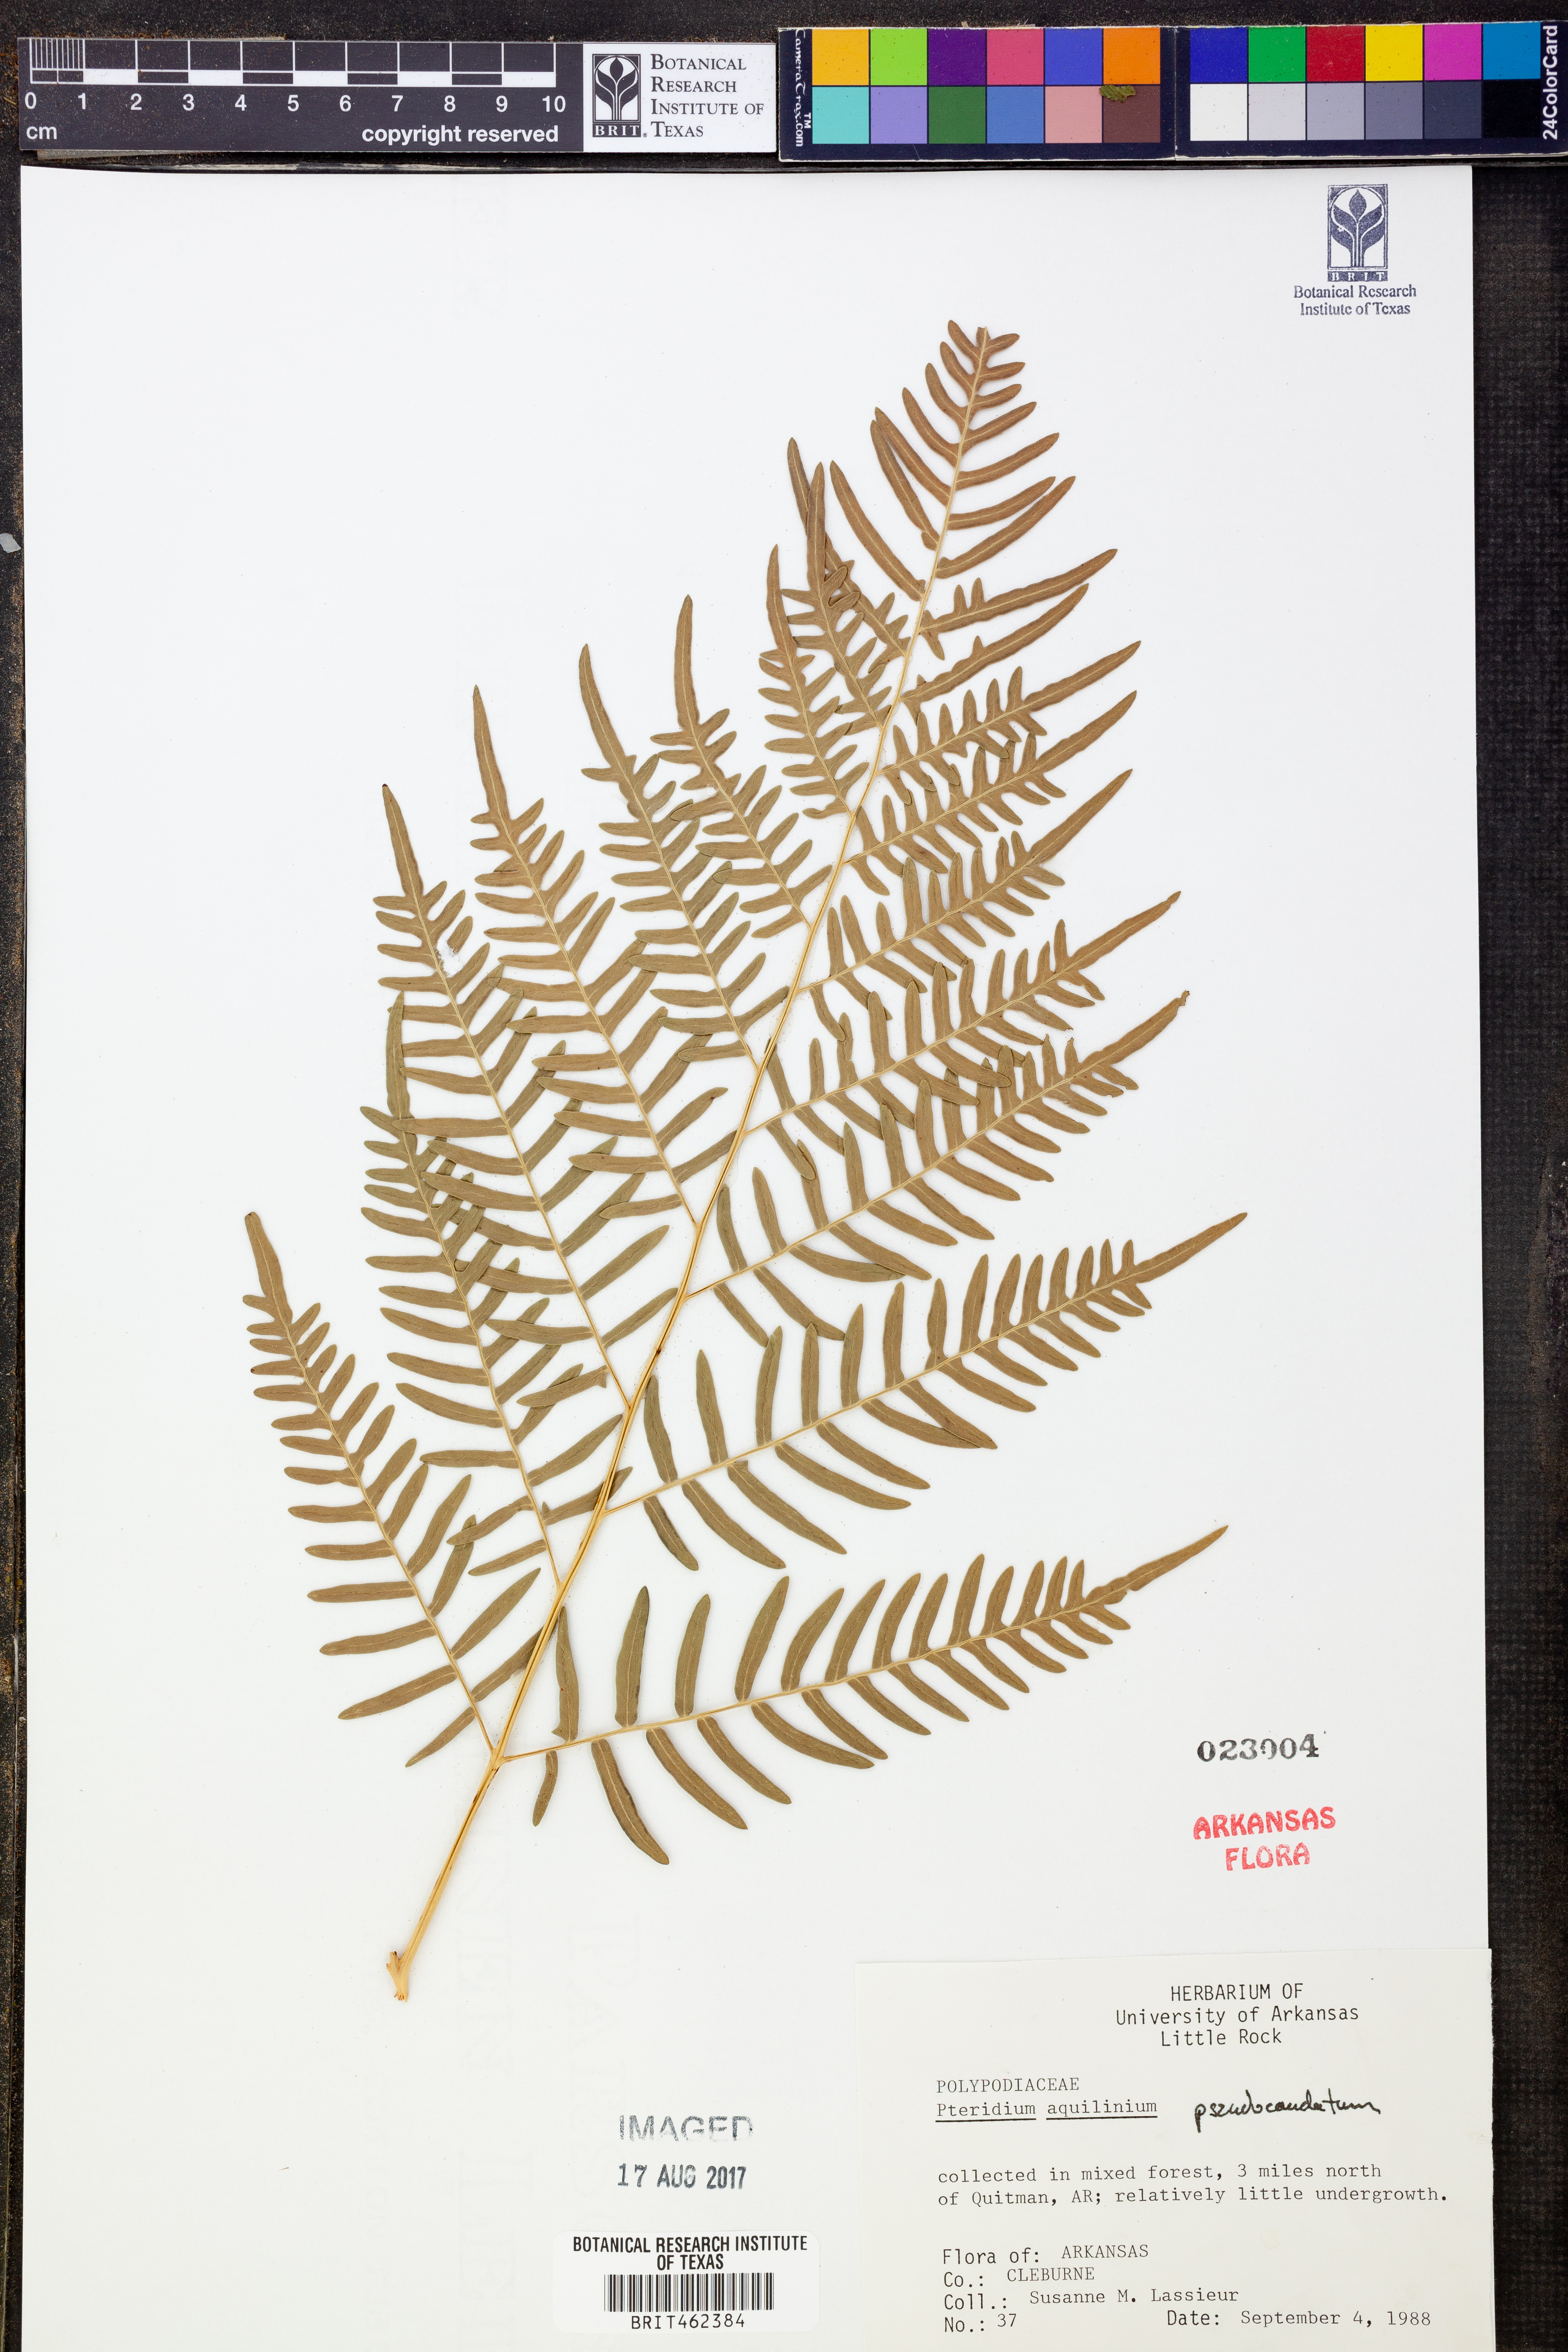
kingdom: Plantae
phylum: Tracheophyta
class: Polypodiopsida
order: Polypodiales
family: Dennstaedtiaceae
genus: Pteridium
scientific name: Pteridium aquilinum
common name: Bracken
